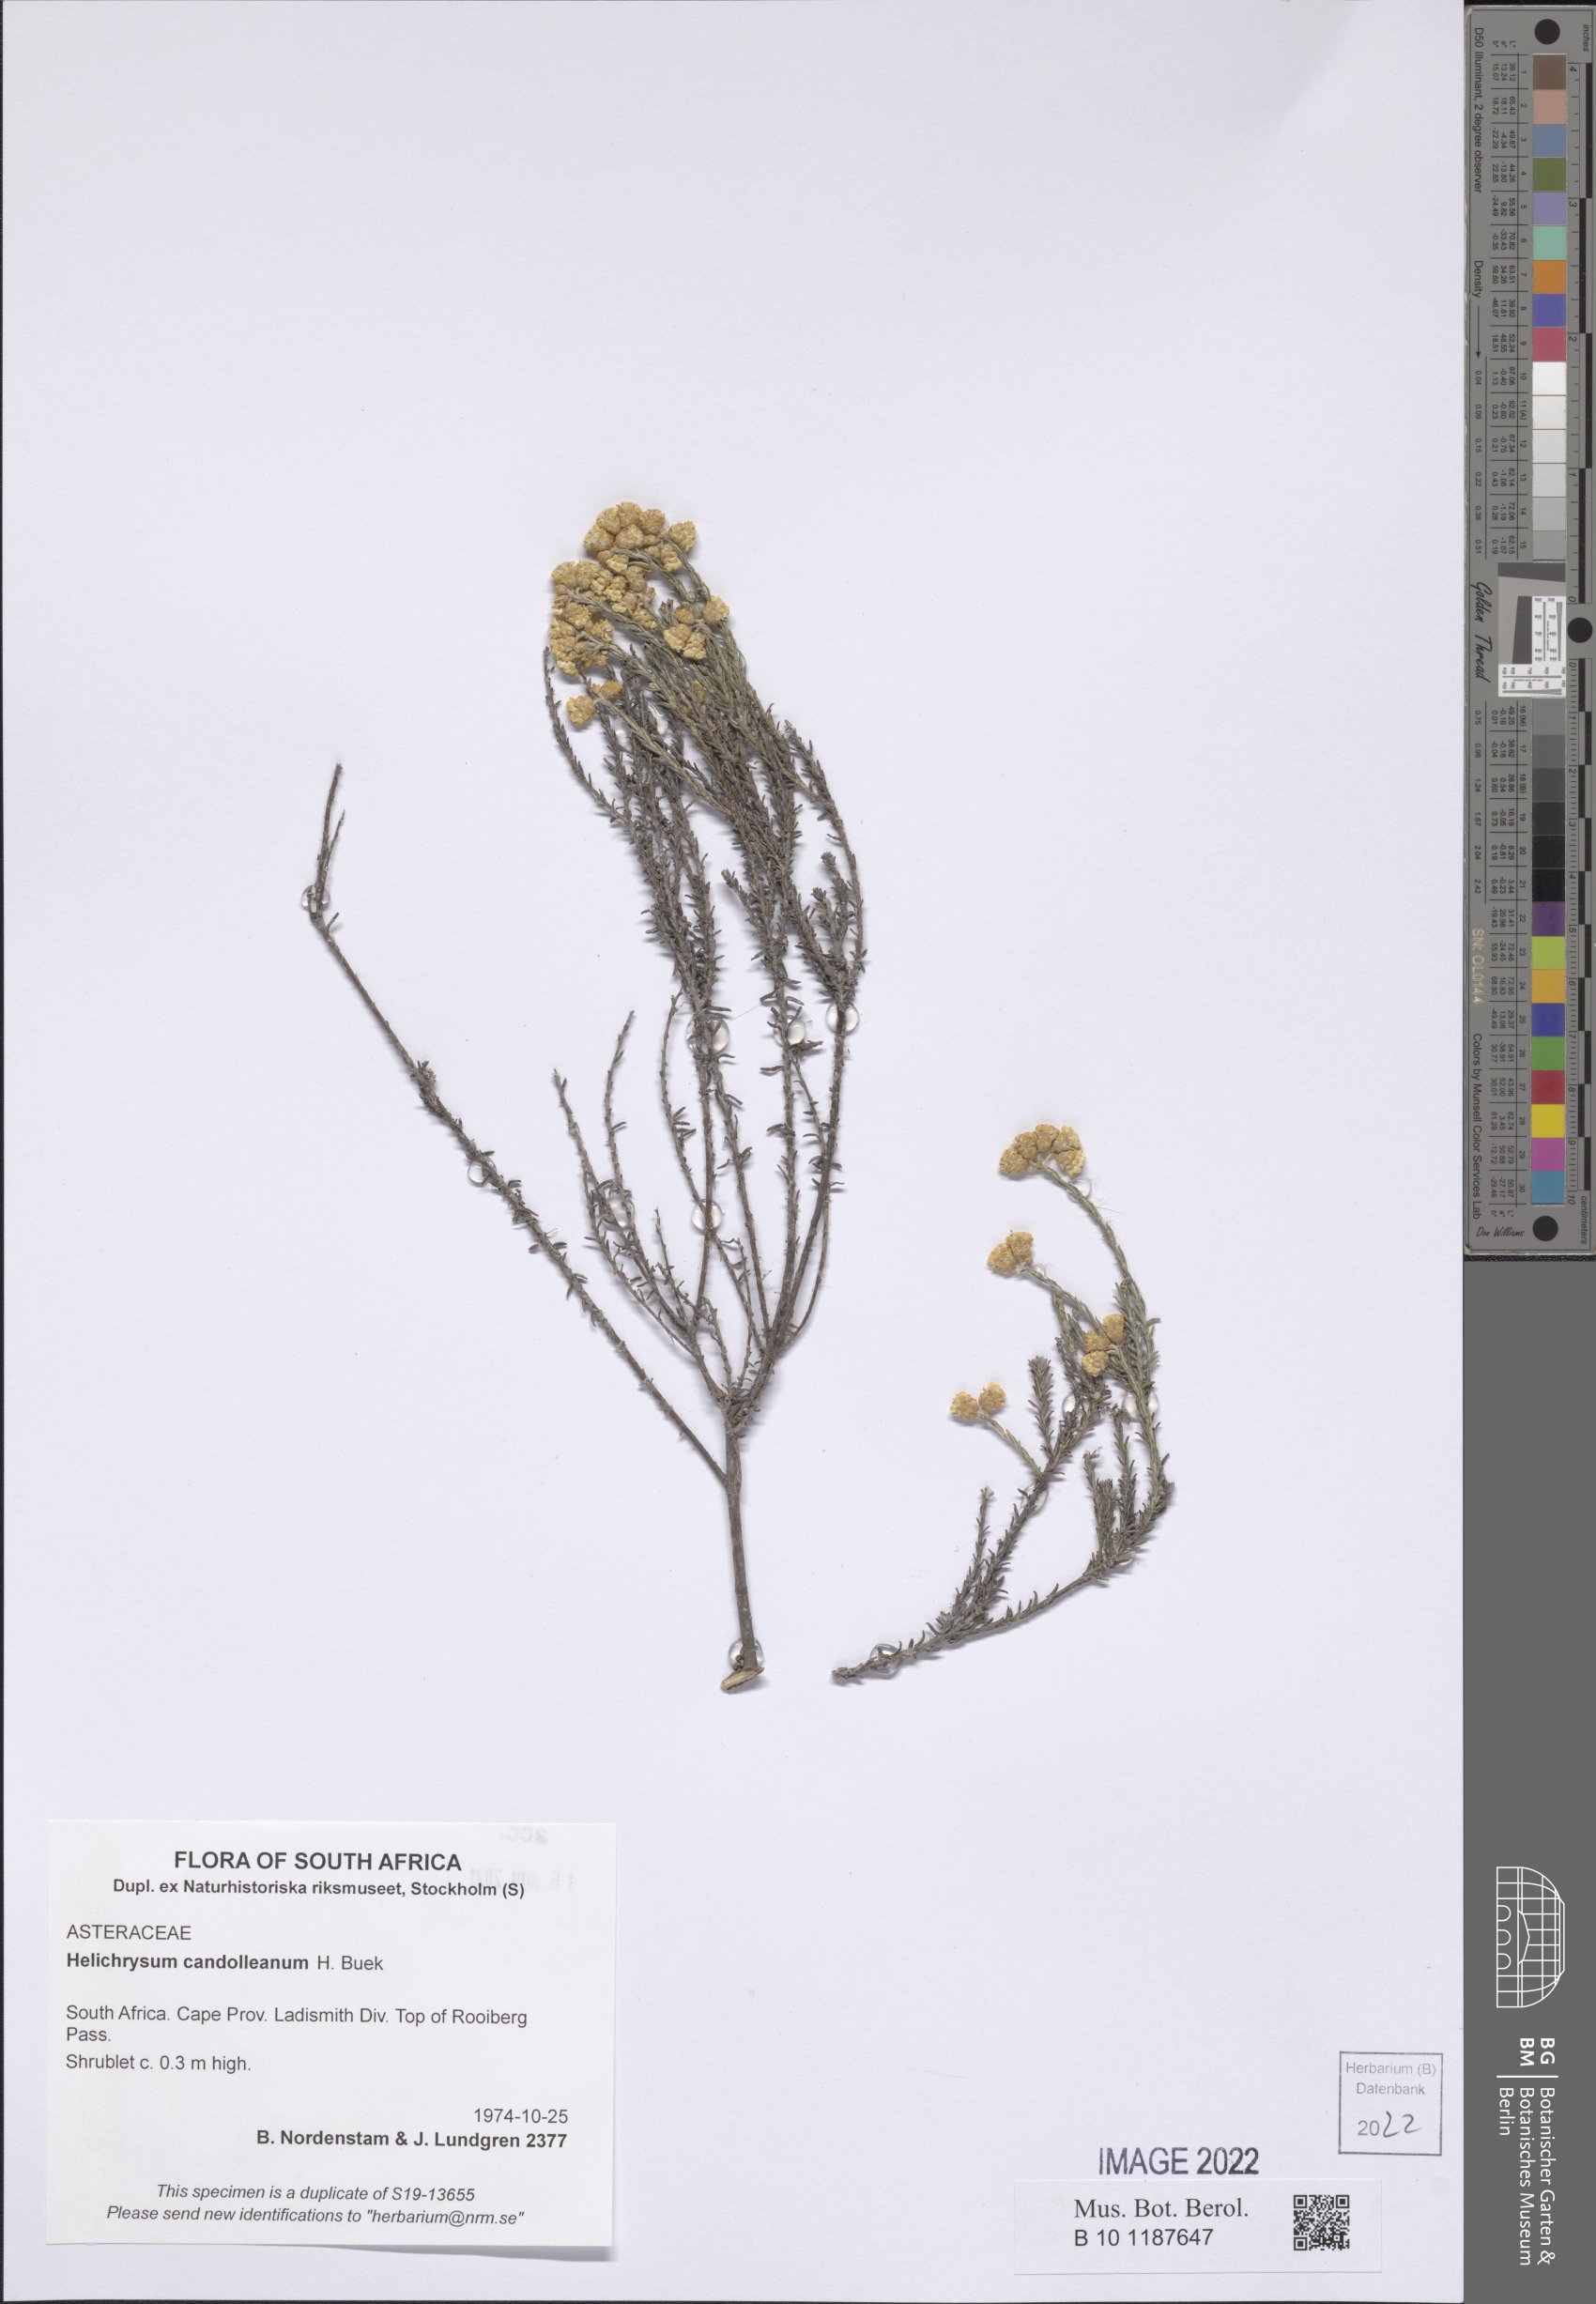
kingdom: Plantae
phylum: Tracheophyta
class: Magnoliopsida
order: Asterales
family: Asteraceae
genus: Helichrysum
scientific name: Helichrysum candolleanum
